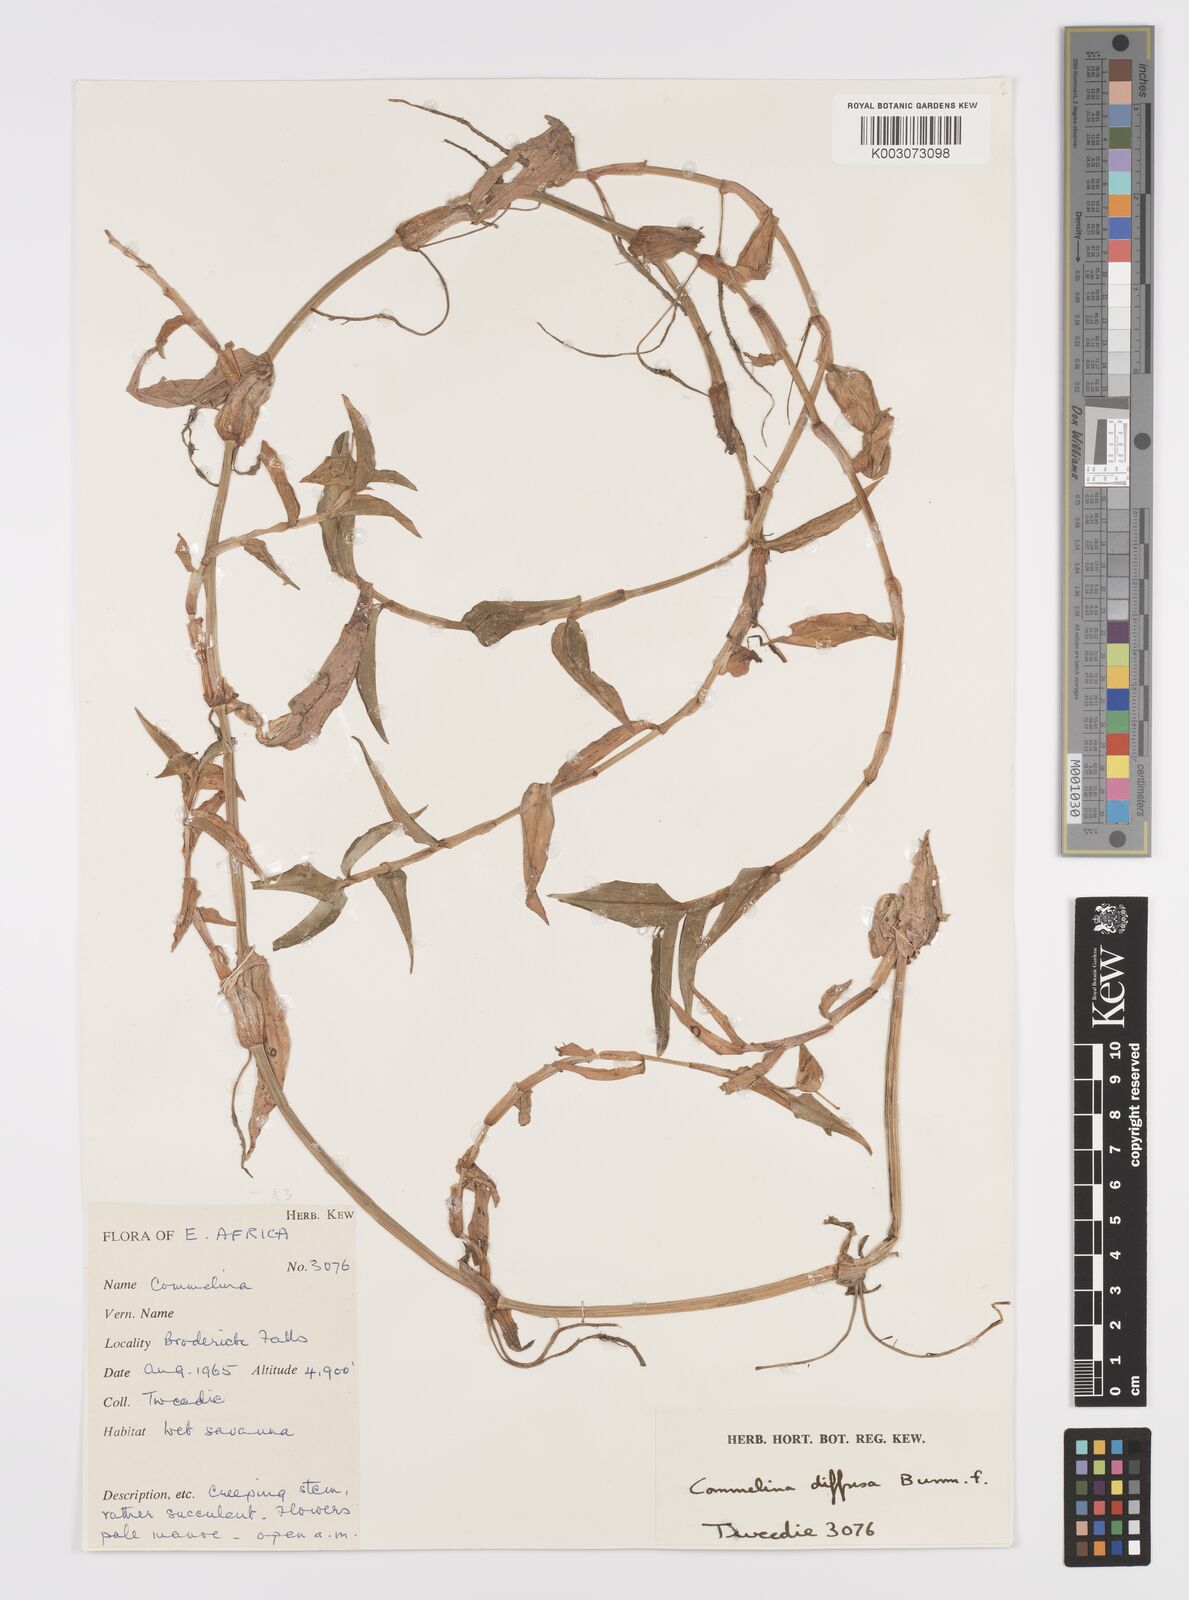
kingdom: Plantae
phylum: Tracheophyta
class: Liliopsida
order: Commelinales
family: Commelinaceae
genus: Commelina
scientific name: Commelina diffusa
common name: Climbing dayflower
